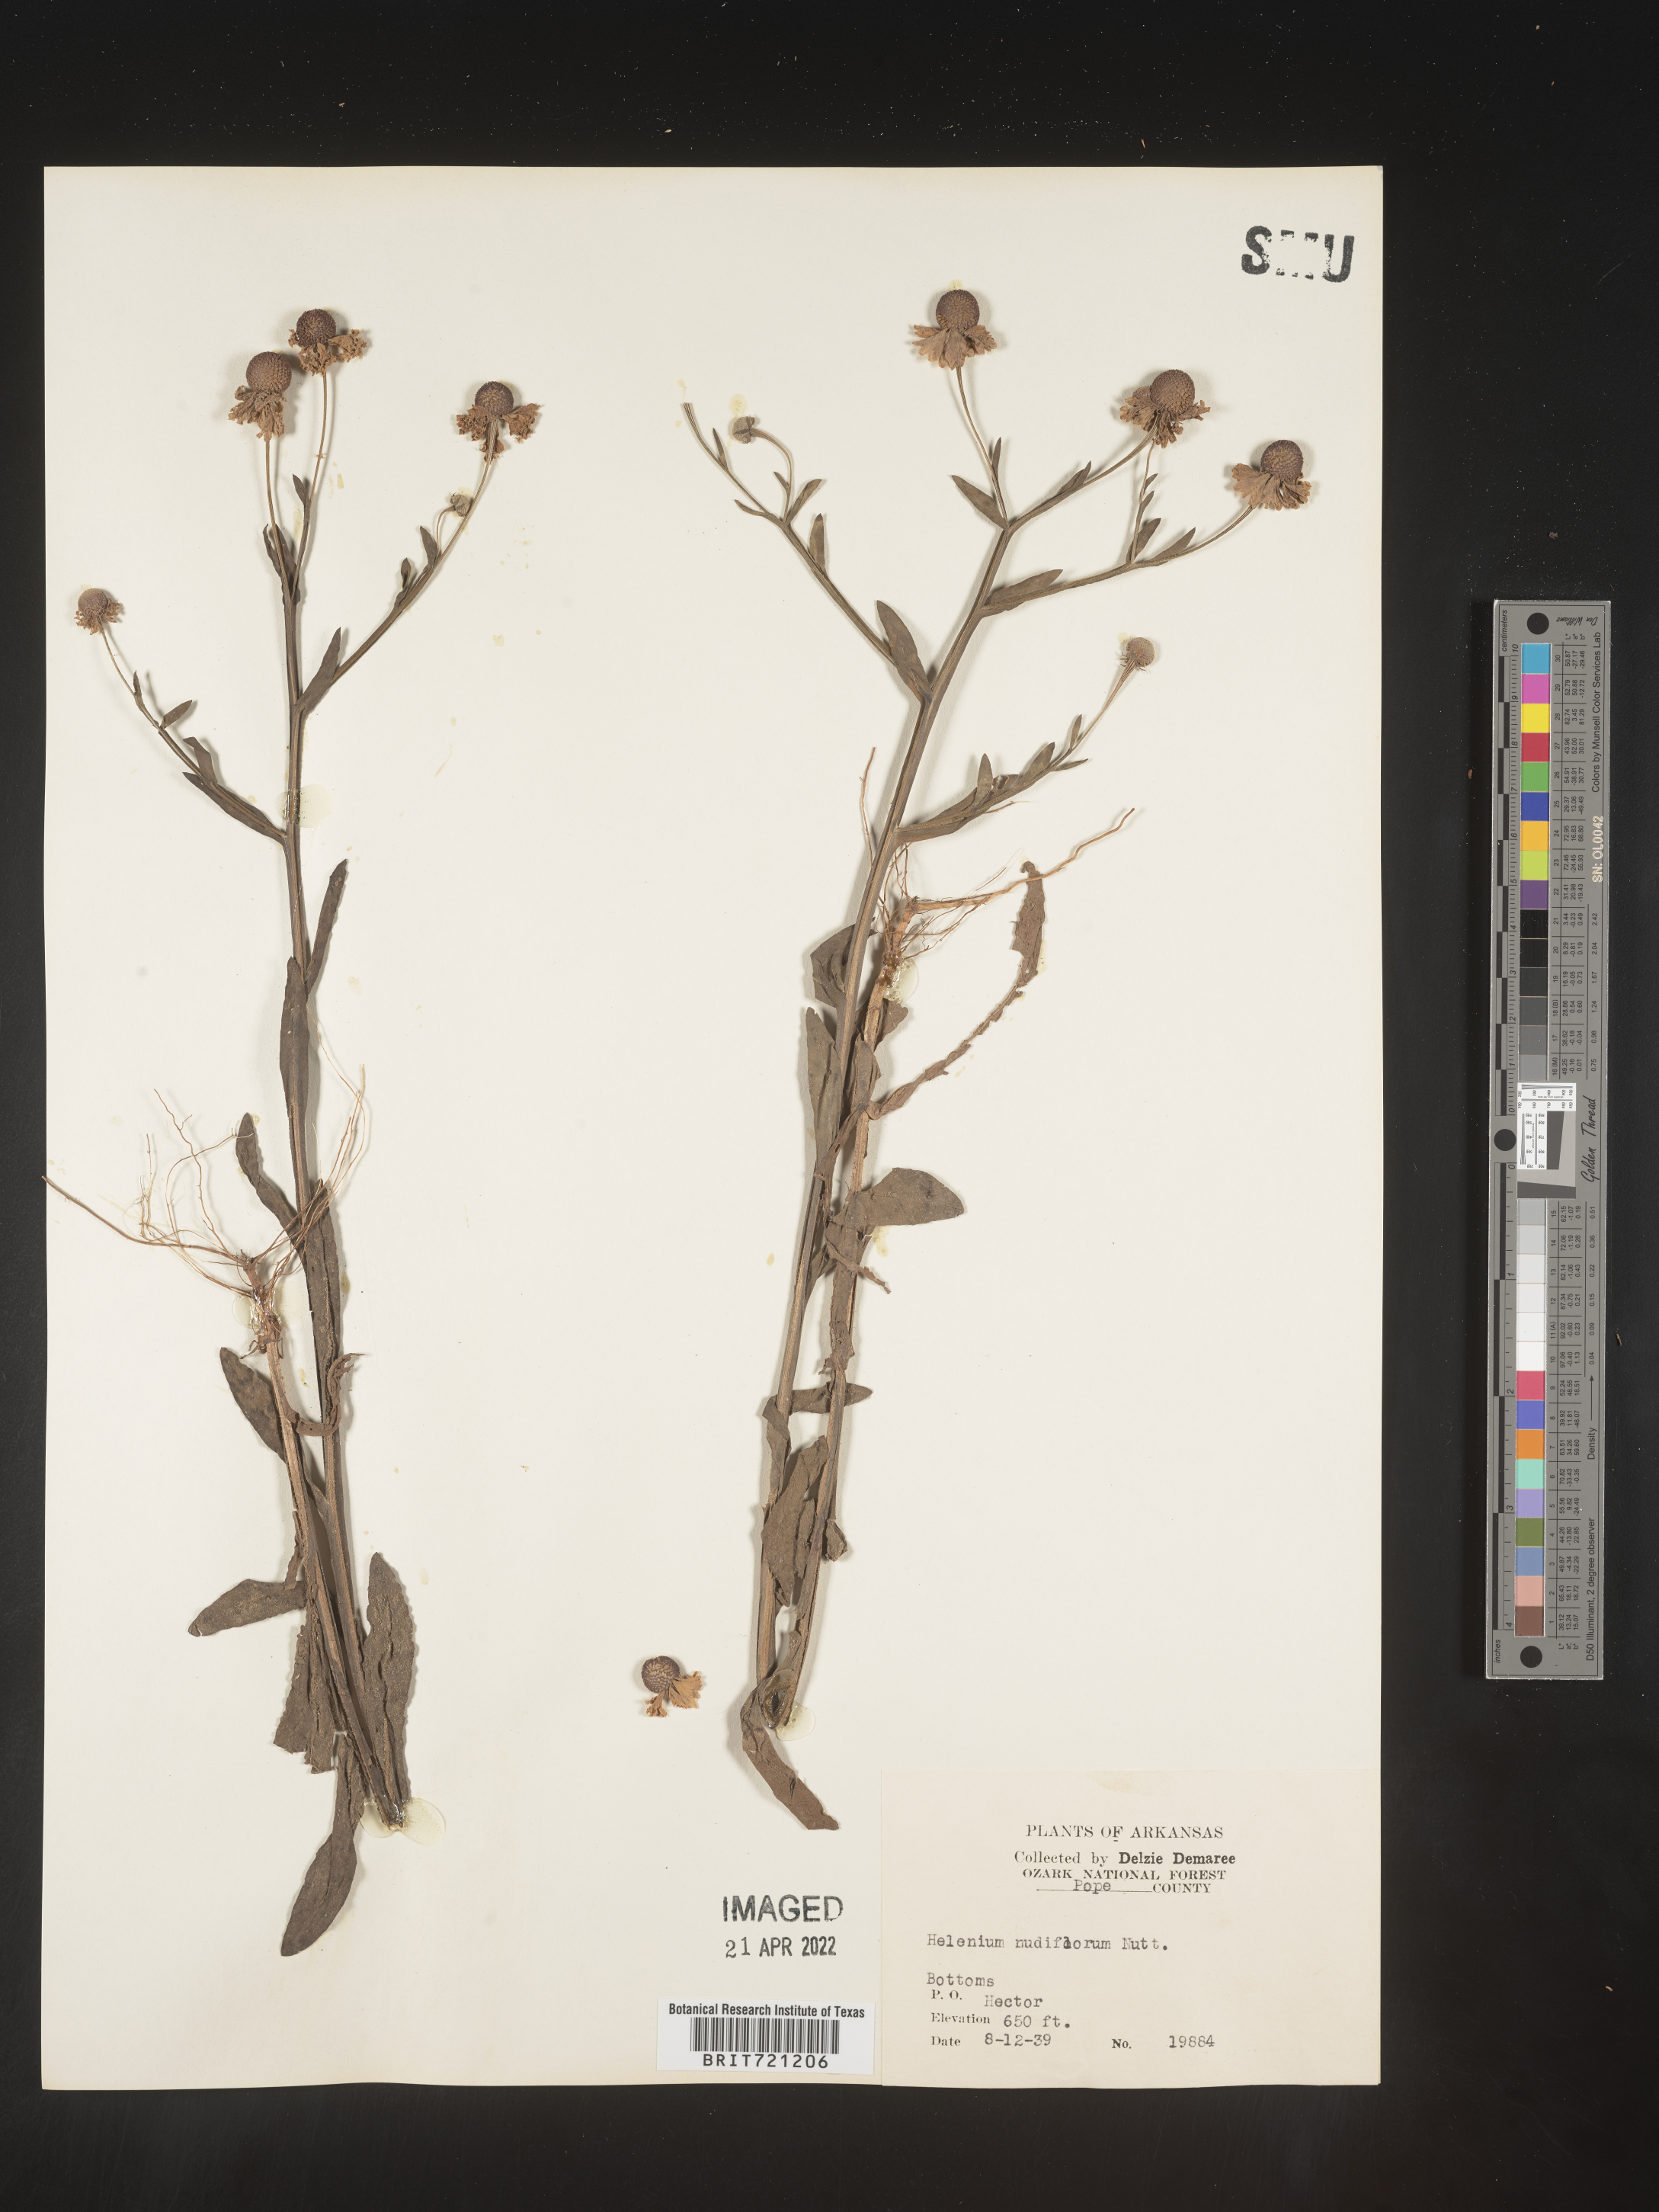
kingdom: Plantae
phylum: Tracheophyta
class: Magnoliopsida
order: Asterales
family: Asteraceae
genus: Helenium
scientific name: Helenium flexuosum
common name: Naked-flowered sneezeweed
